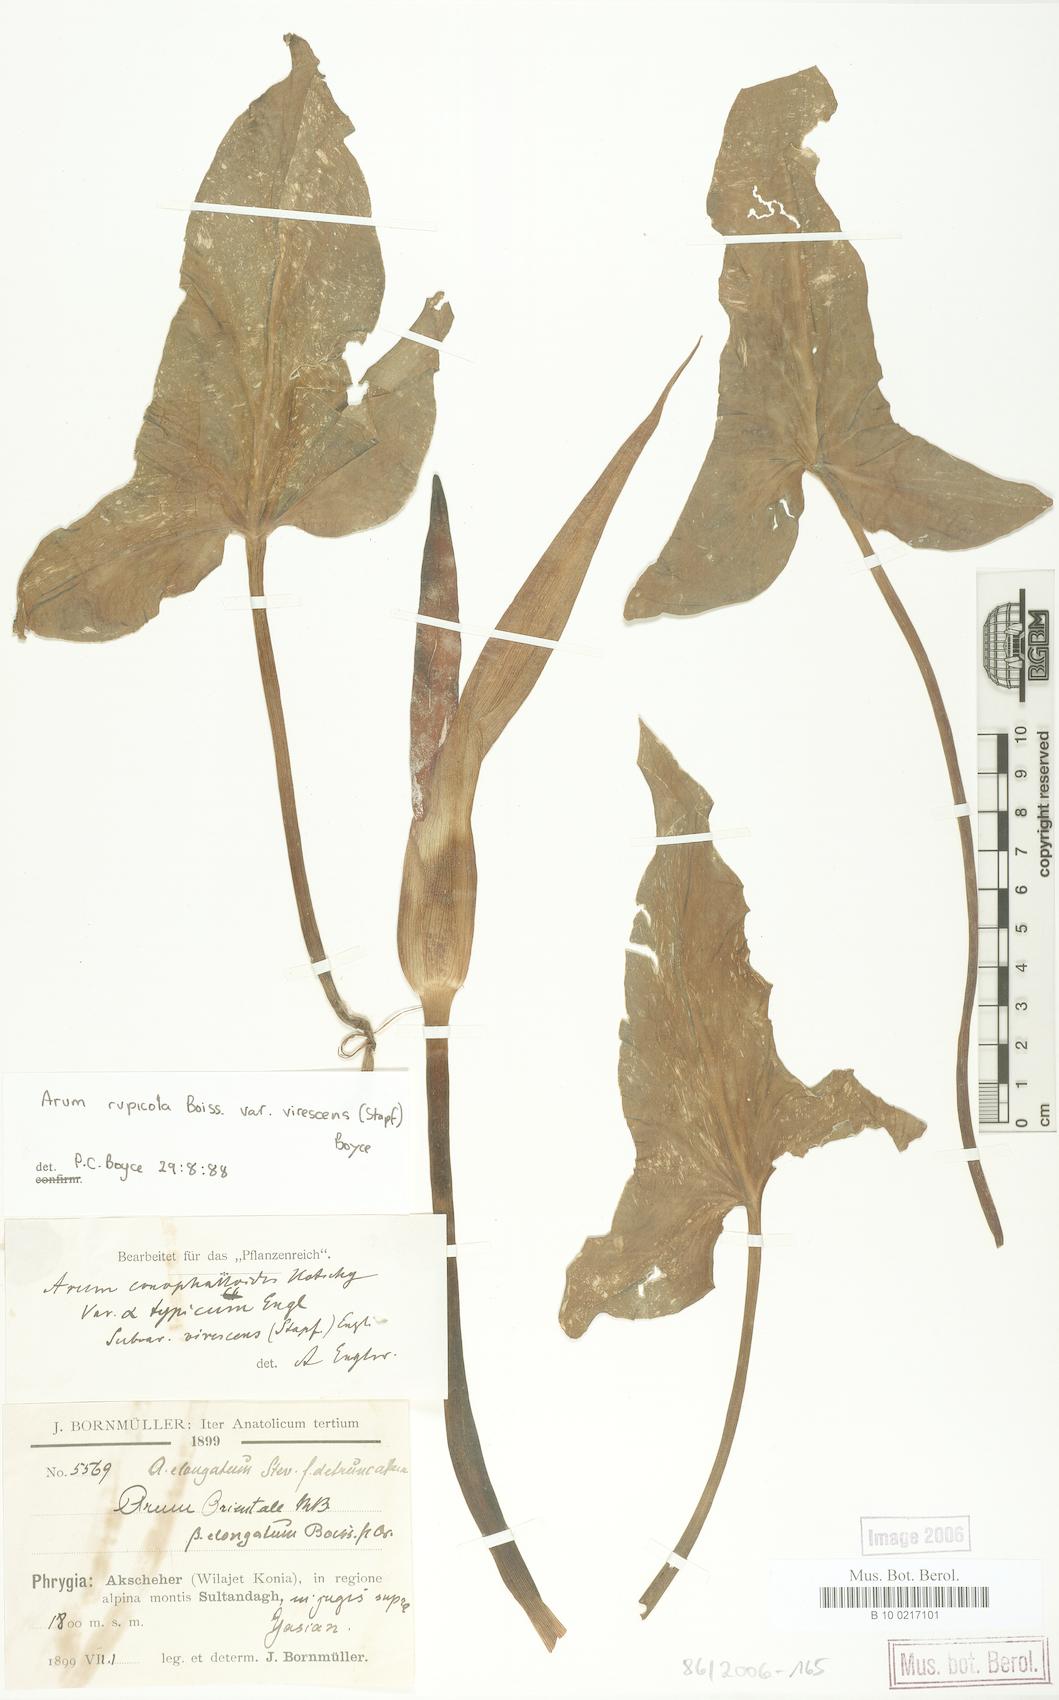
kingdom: Plantae
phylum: Tracheophyta
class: Liliopsida
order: Alismatales
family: Araceae
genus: Arum
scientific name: Arum rupicola
